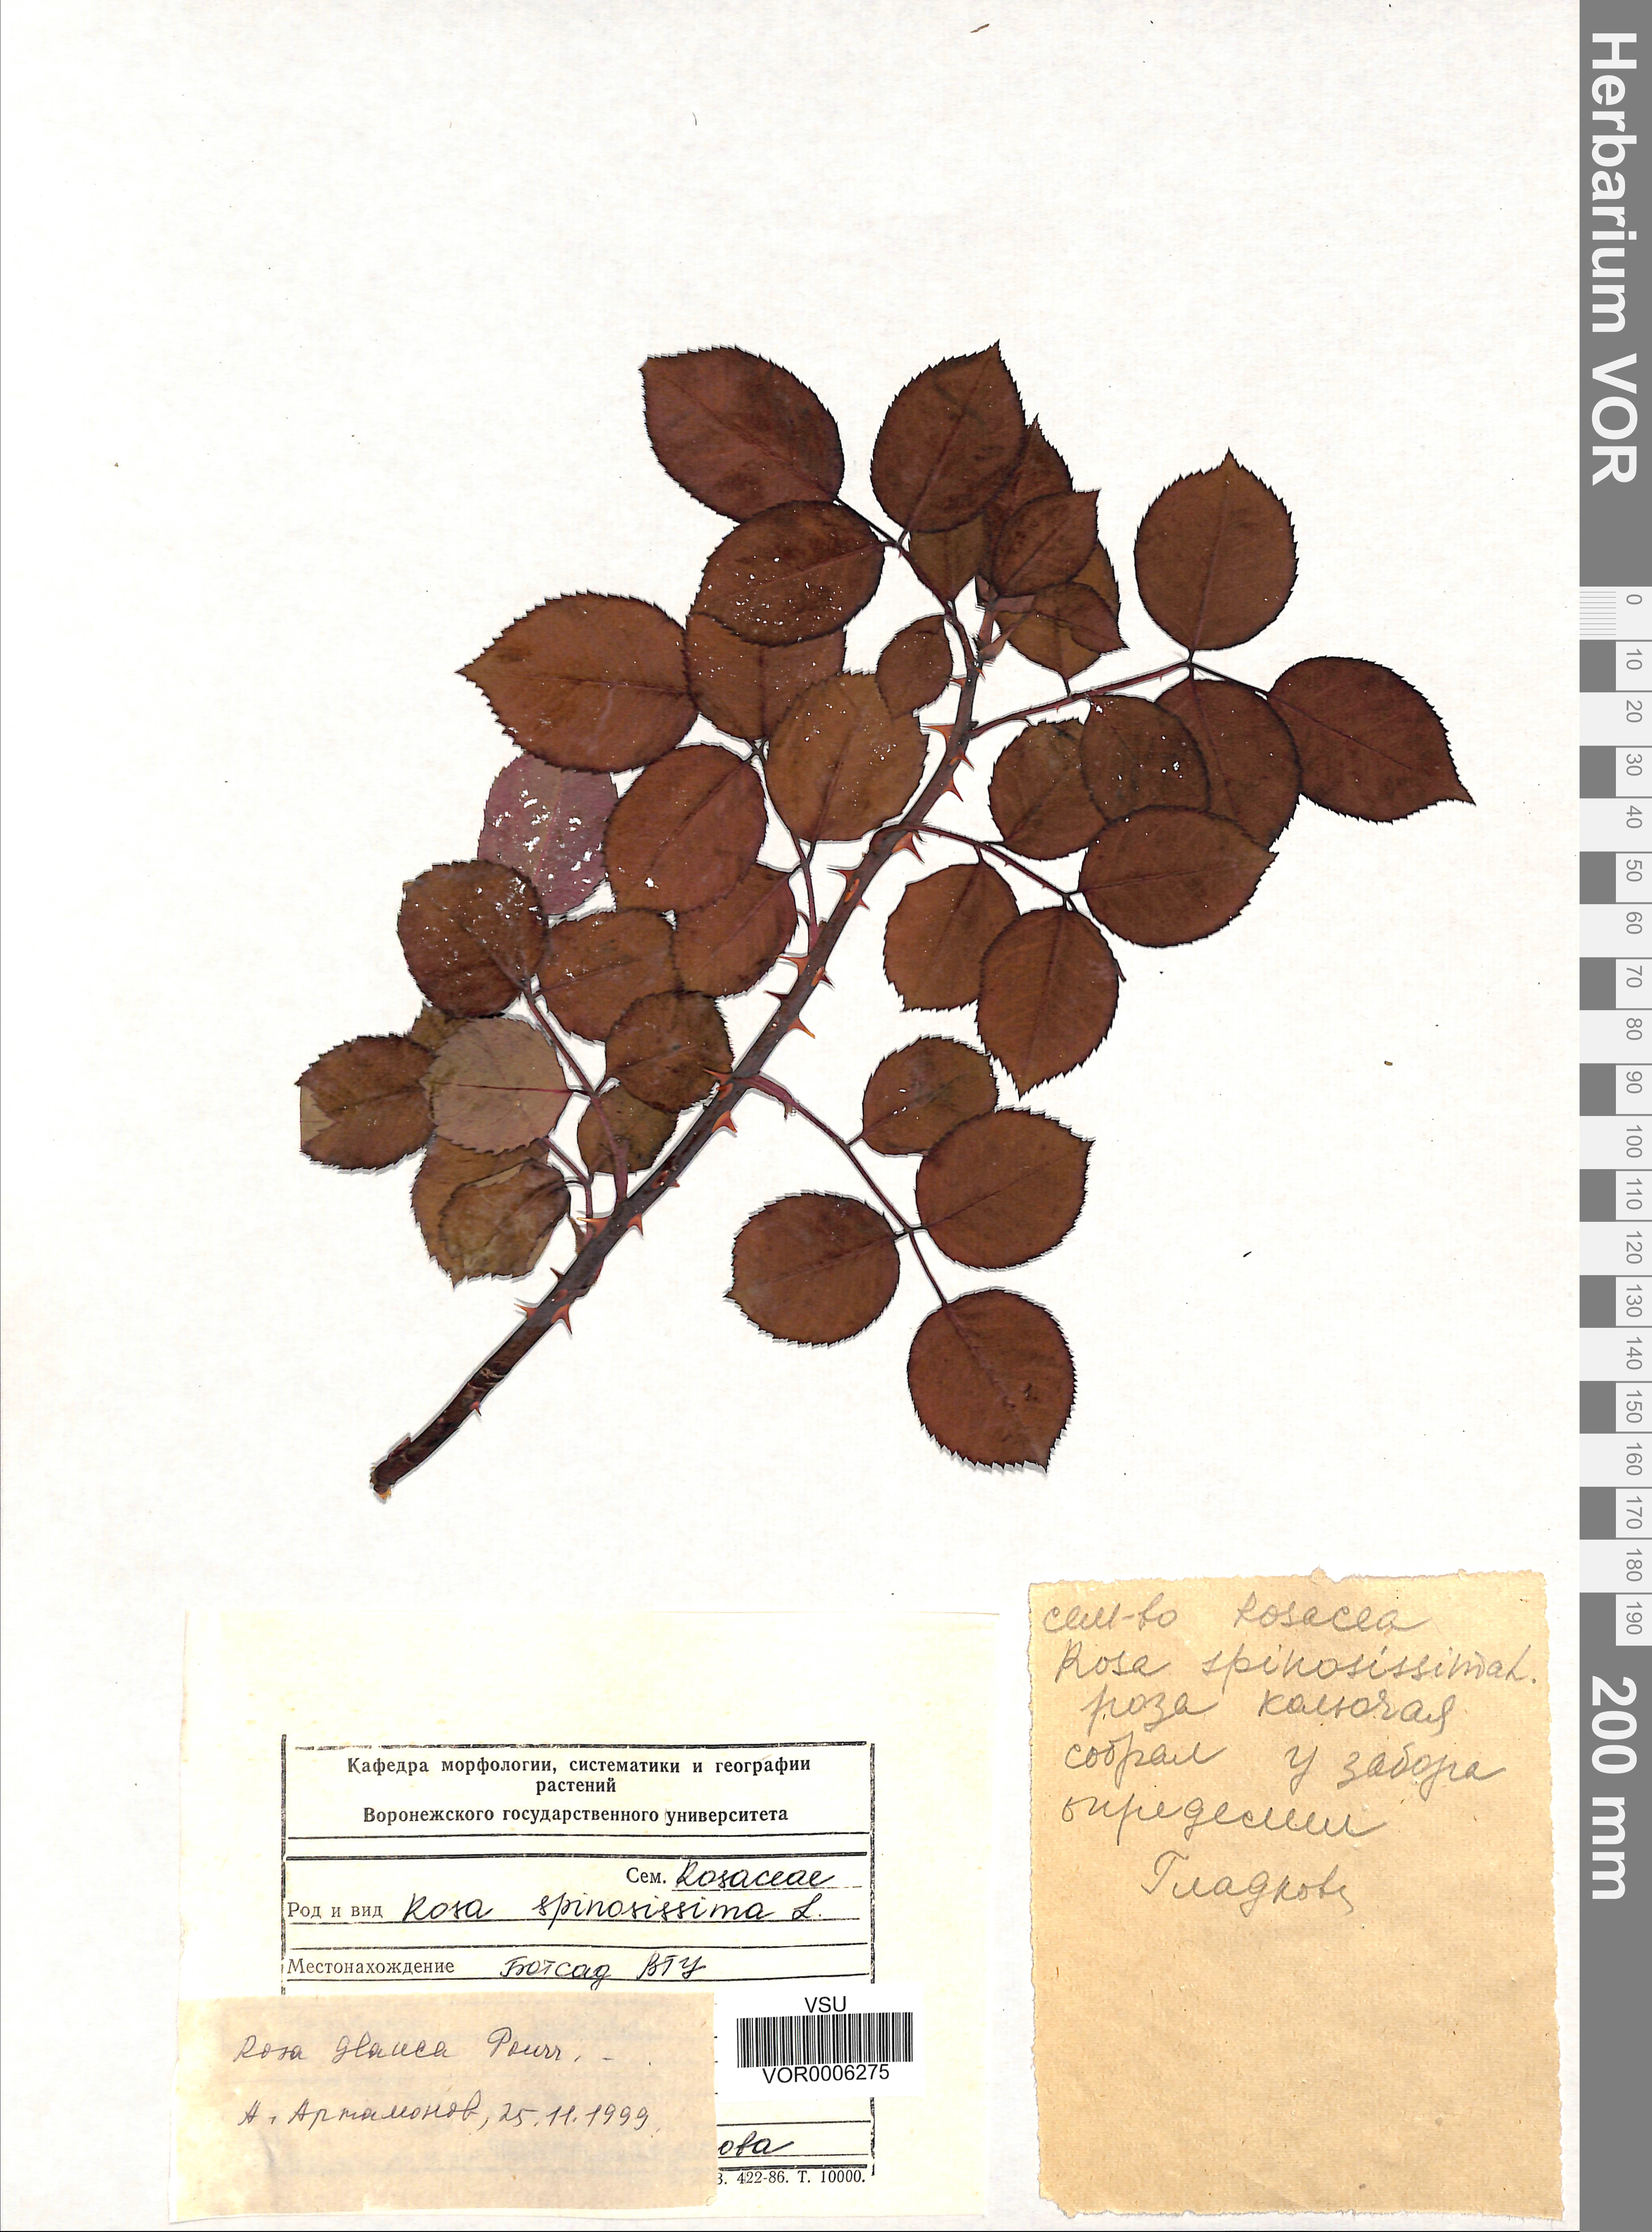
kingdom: Plantae
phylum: Tracheophyta
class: Magnoliopsida
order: Rosales
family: Rosaceae
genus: Rosa
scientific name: Rosa glauca
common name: Redleaf rose
